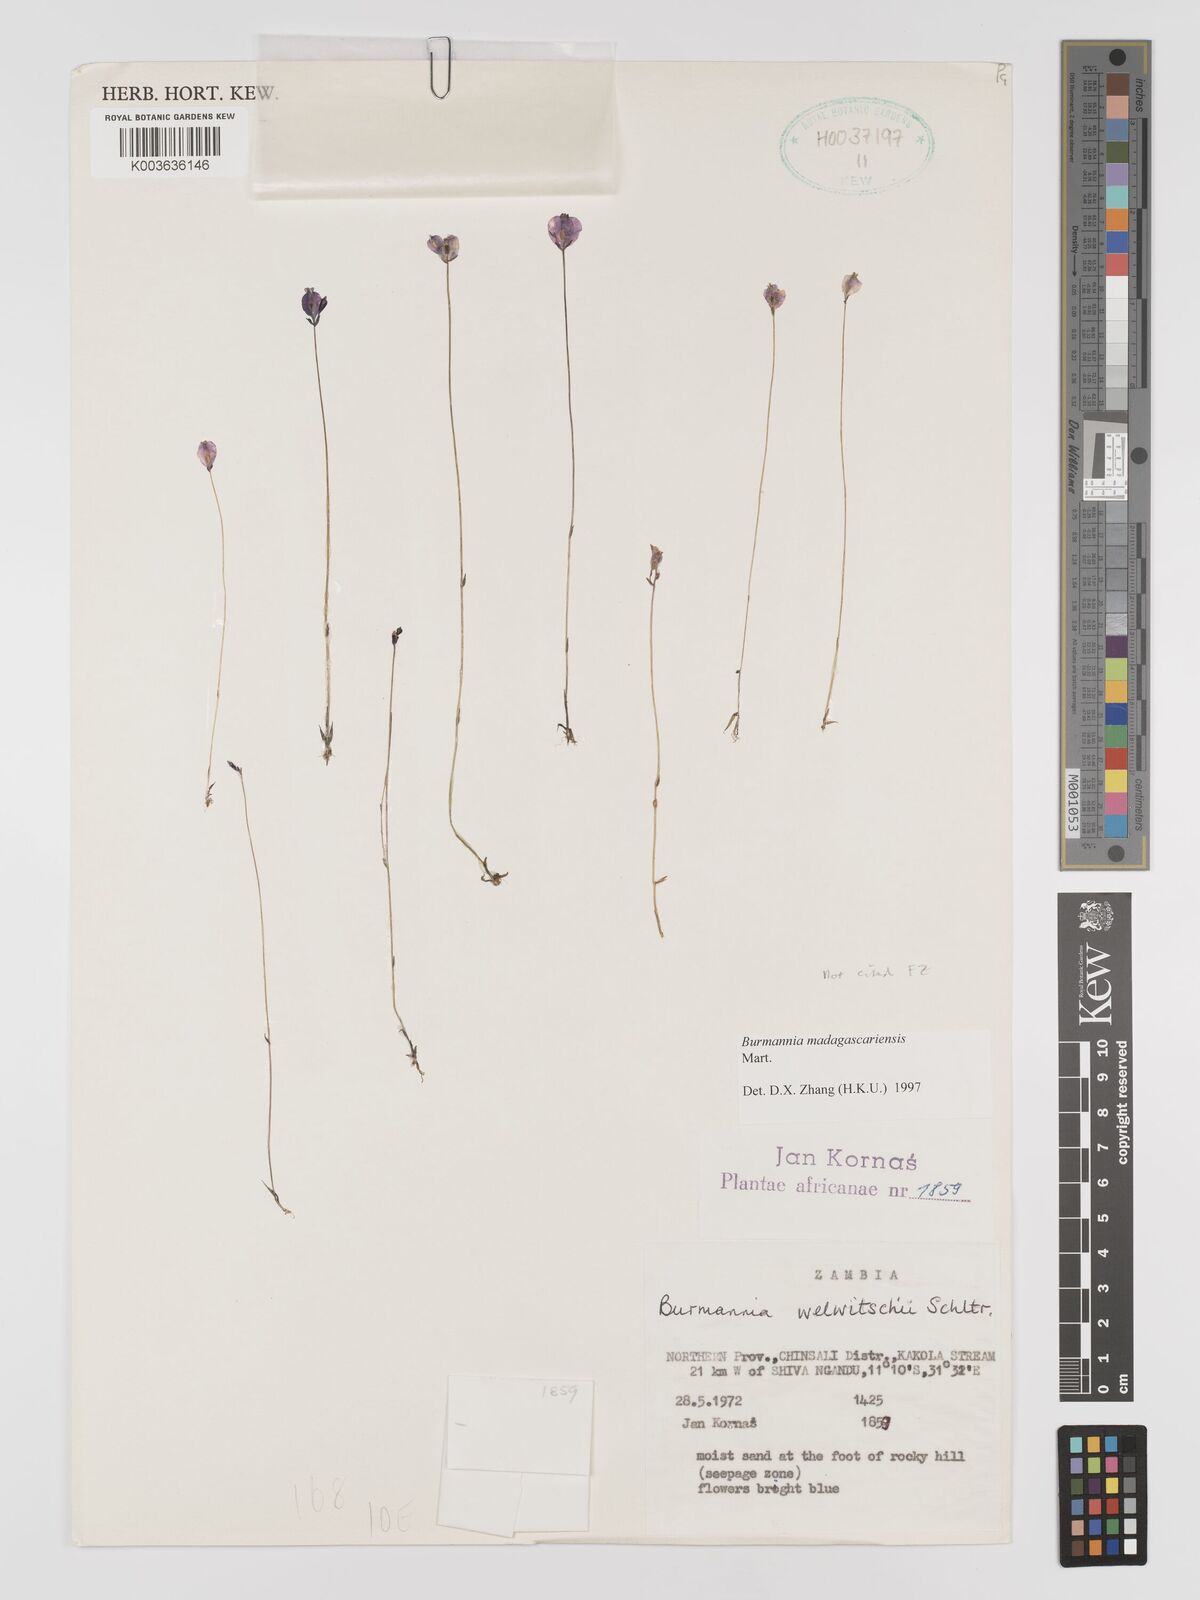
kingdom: Plantae
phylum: Tracheophyta
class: Liliopsida
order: Dioscoreales
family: Burmanniaceae
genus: Burmannia
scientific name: Burmannia madagascariensis
